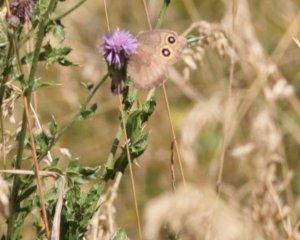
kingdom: Animalia
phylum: Arthropoda
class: Insecta
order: Lepidoptera
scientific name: Lepidoptera
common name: Butterflies
